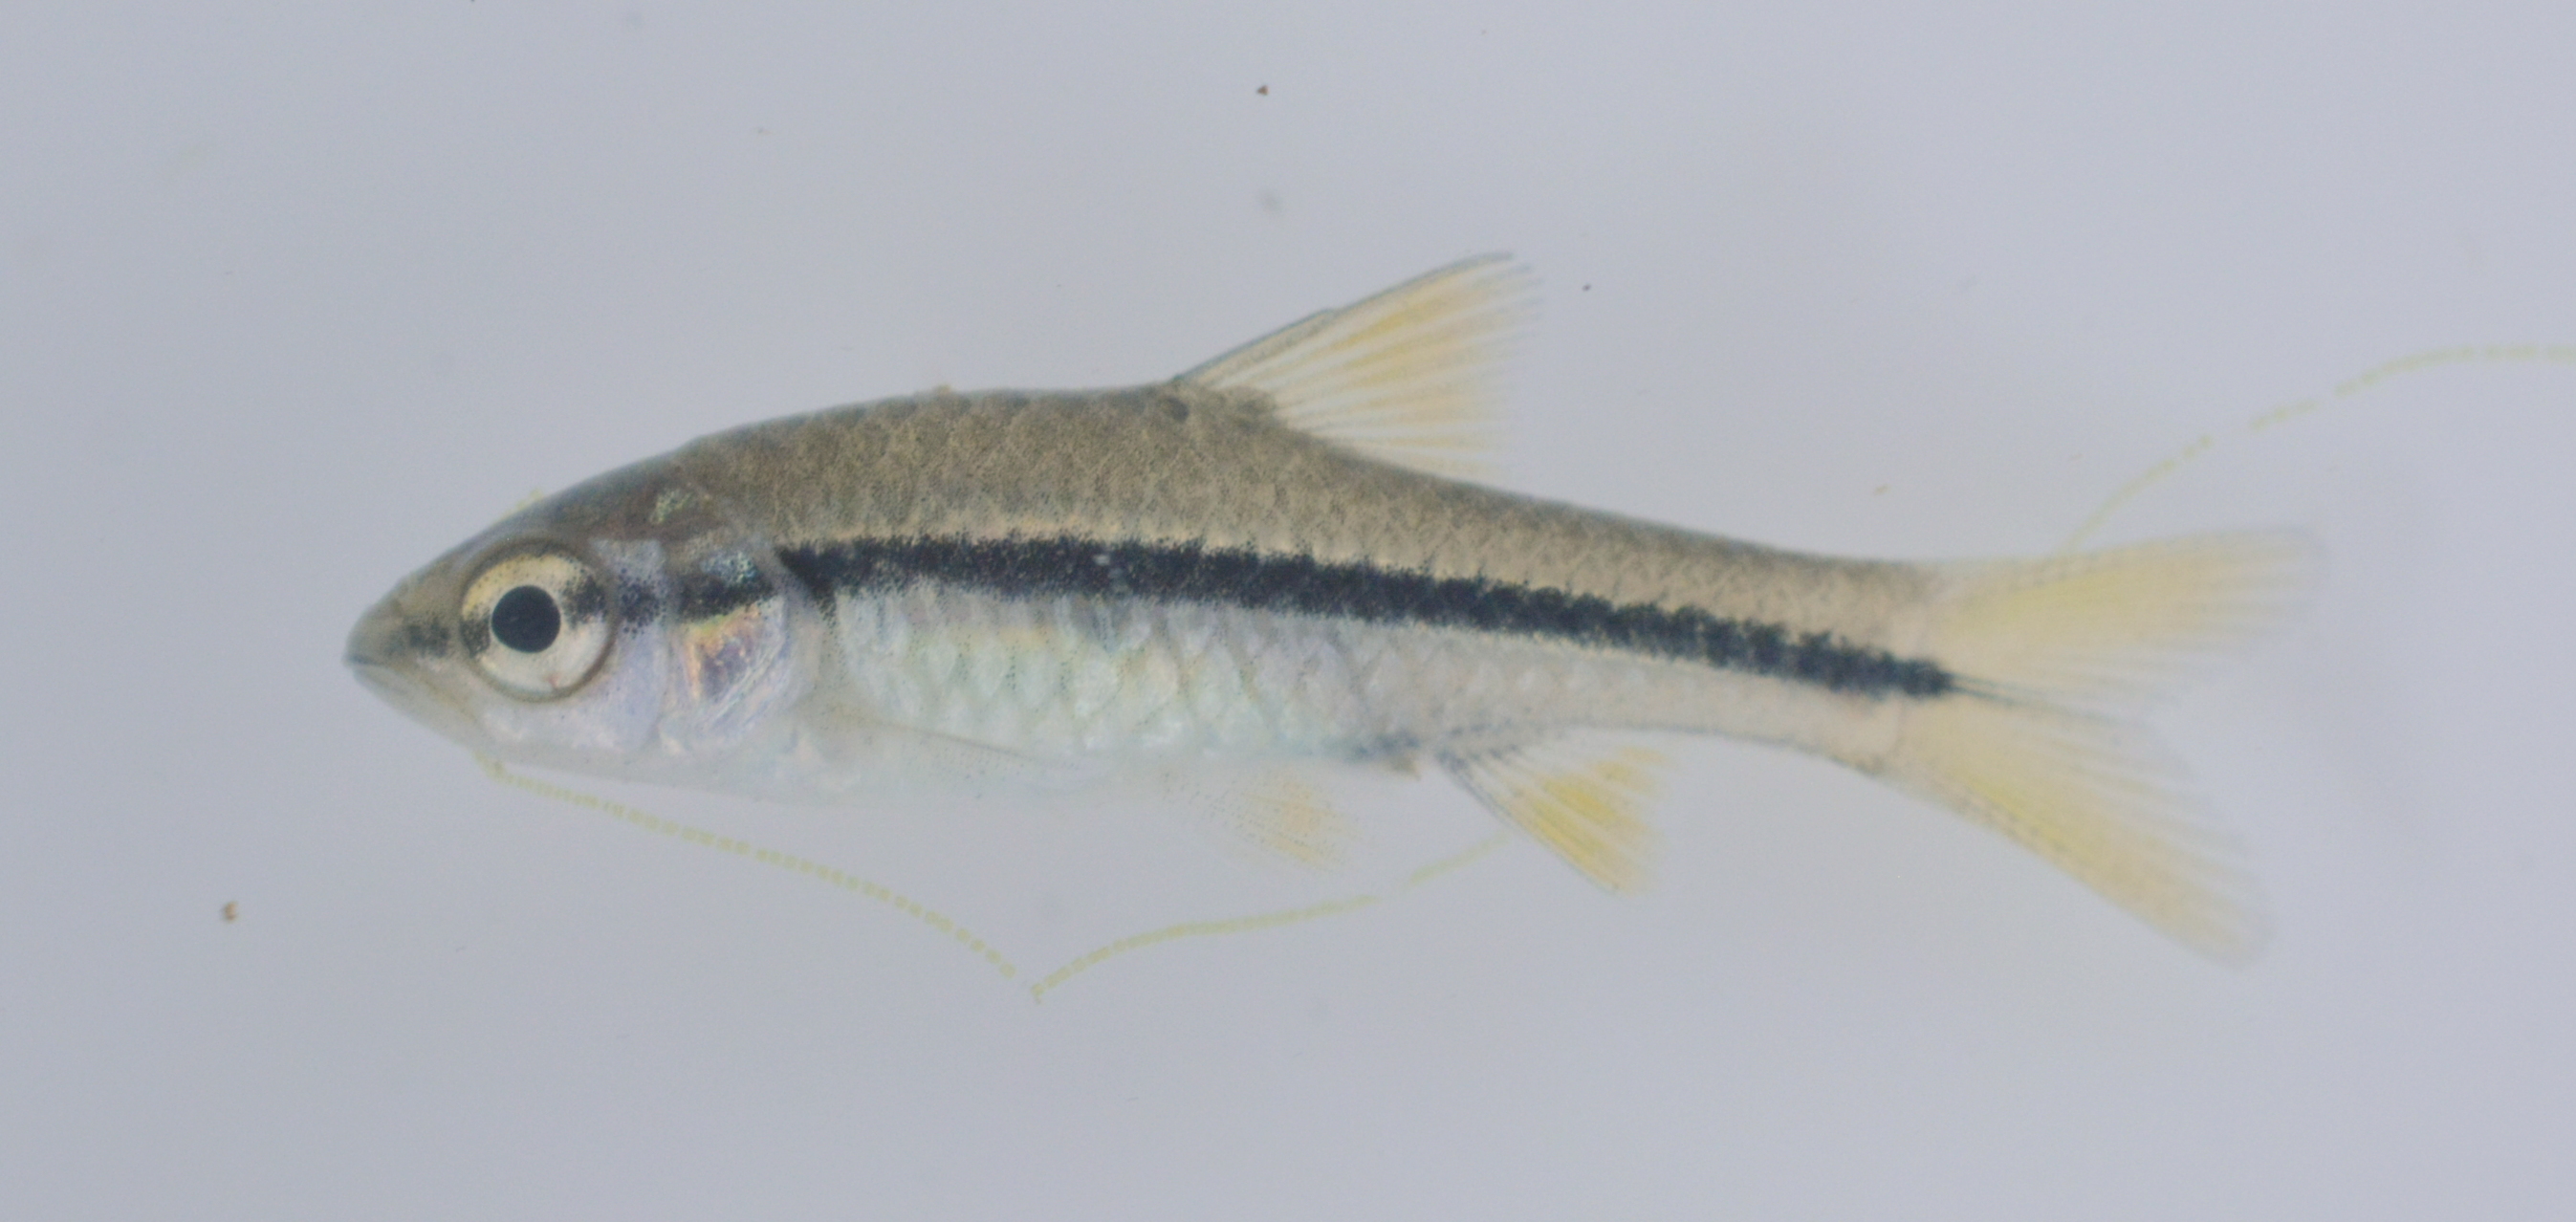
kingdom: Animalia
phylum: Chordata
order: Cypriniformes
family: Cyprinidae
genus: Enteromius
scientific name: Enteromius
